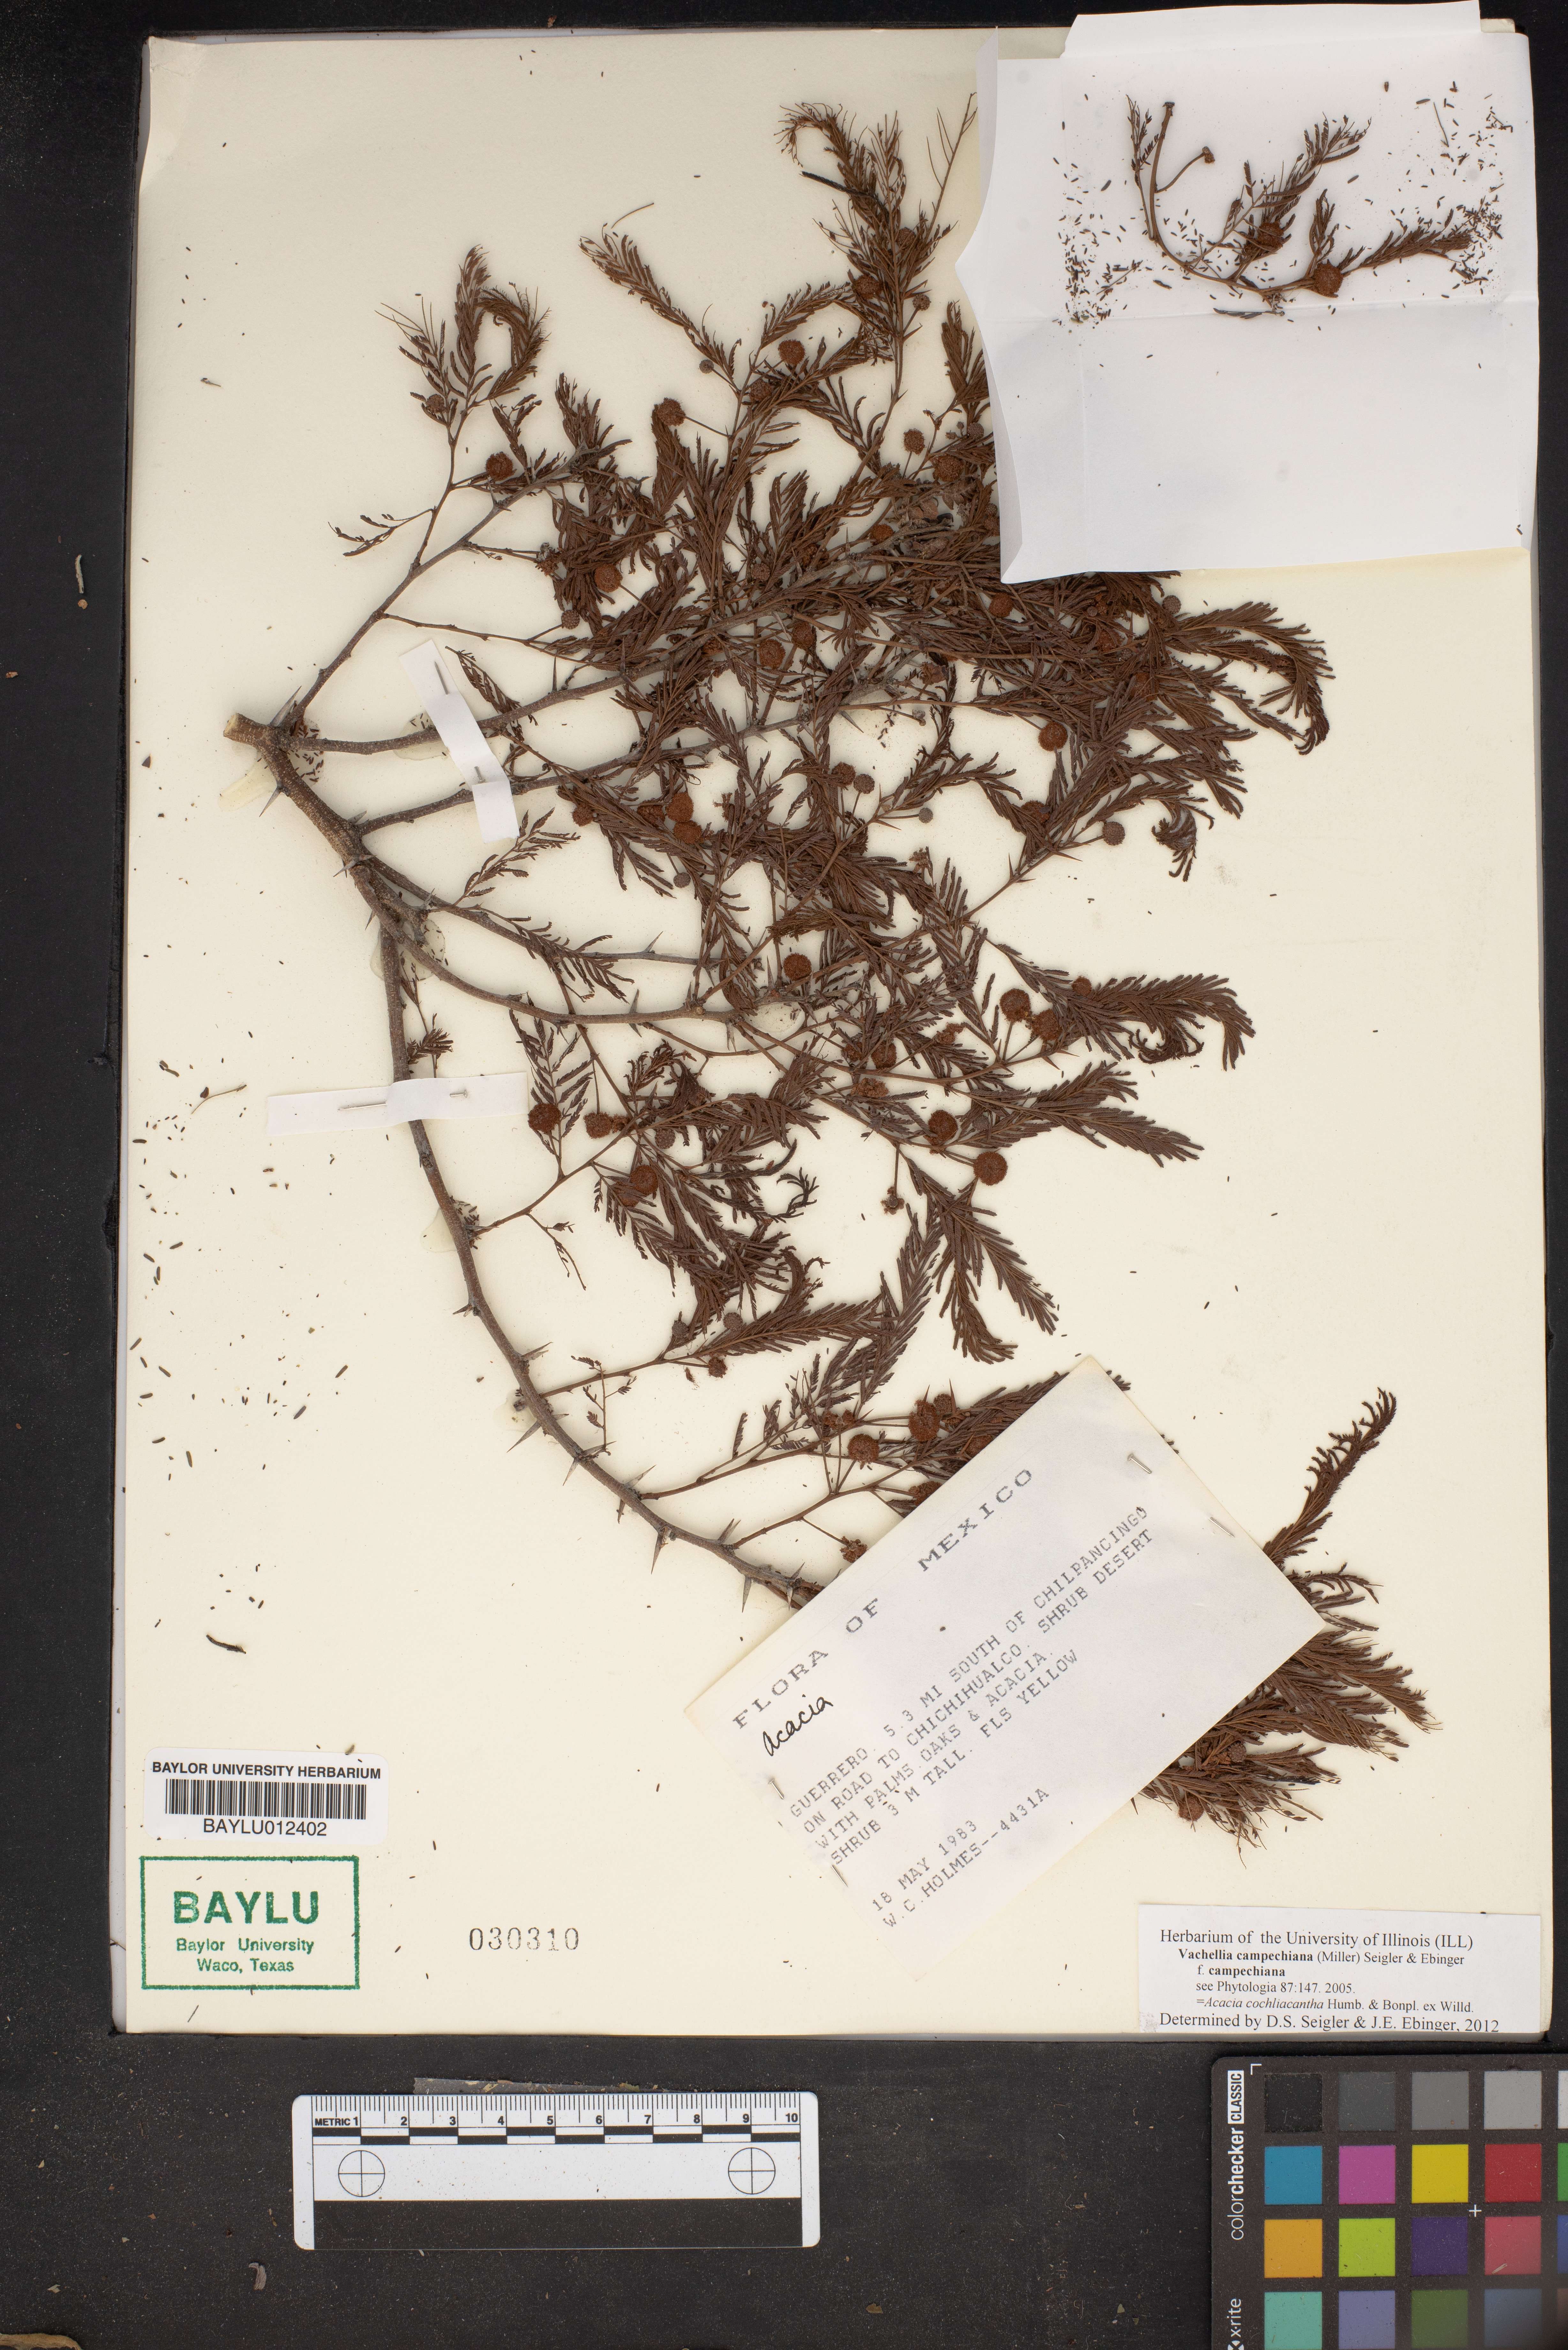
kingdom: Plantae
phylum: Tracheophyta
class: Magnoliopsida
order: Fabales
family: Fabaceae
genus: Vachellia
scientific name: Vachellia campechiana
